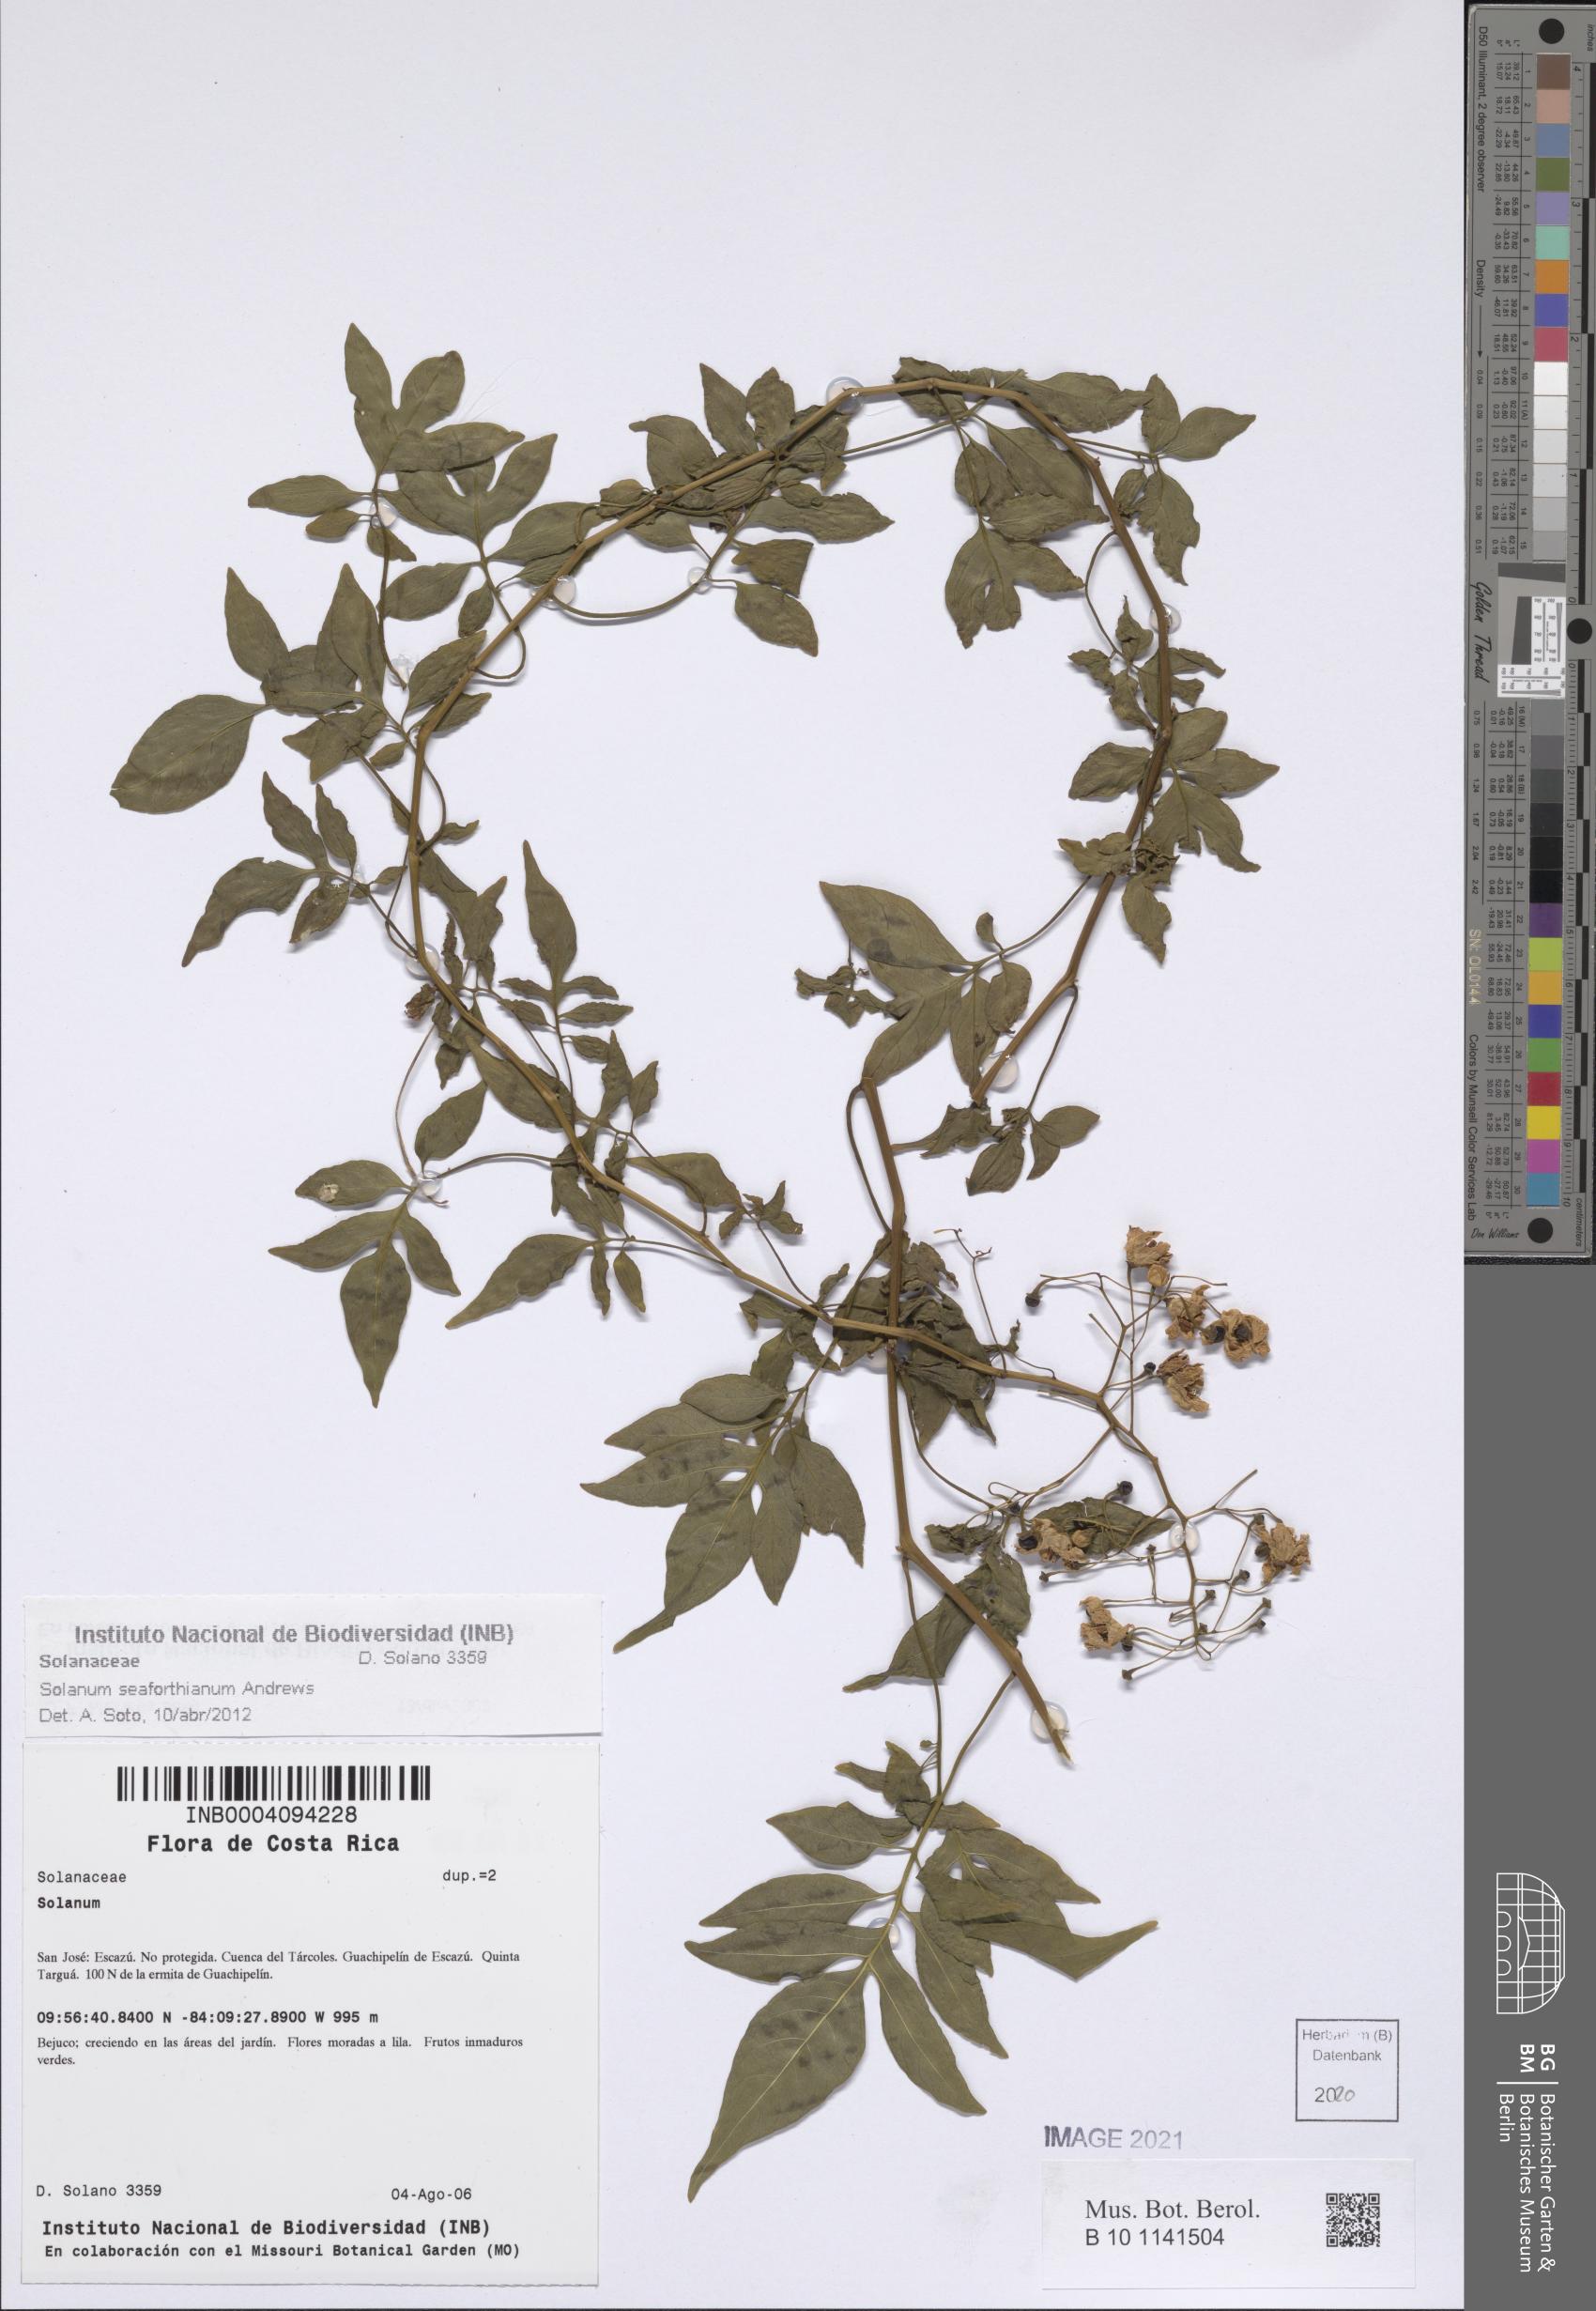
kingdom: Plantae
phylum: Tracheophyta
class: Magnoliopsida
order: Solanales
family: Solanaceae
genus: Solanum
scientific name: Solanum seaforthianum
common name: Brazilian nightshade
